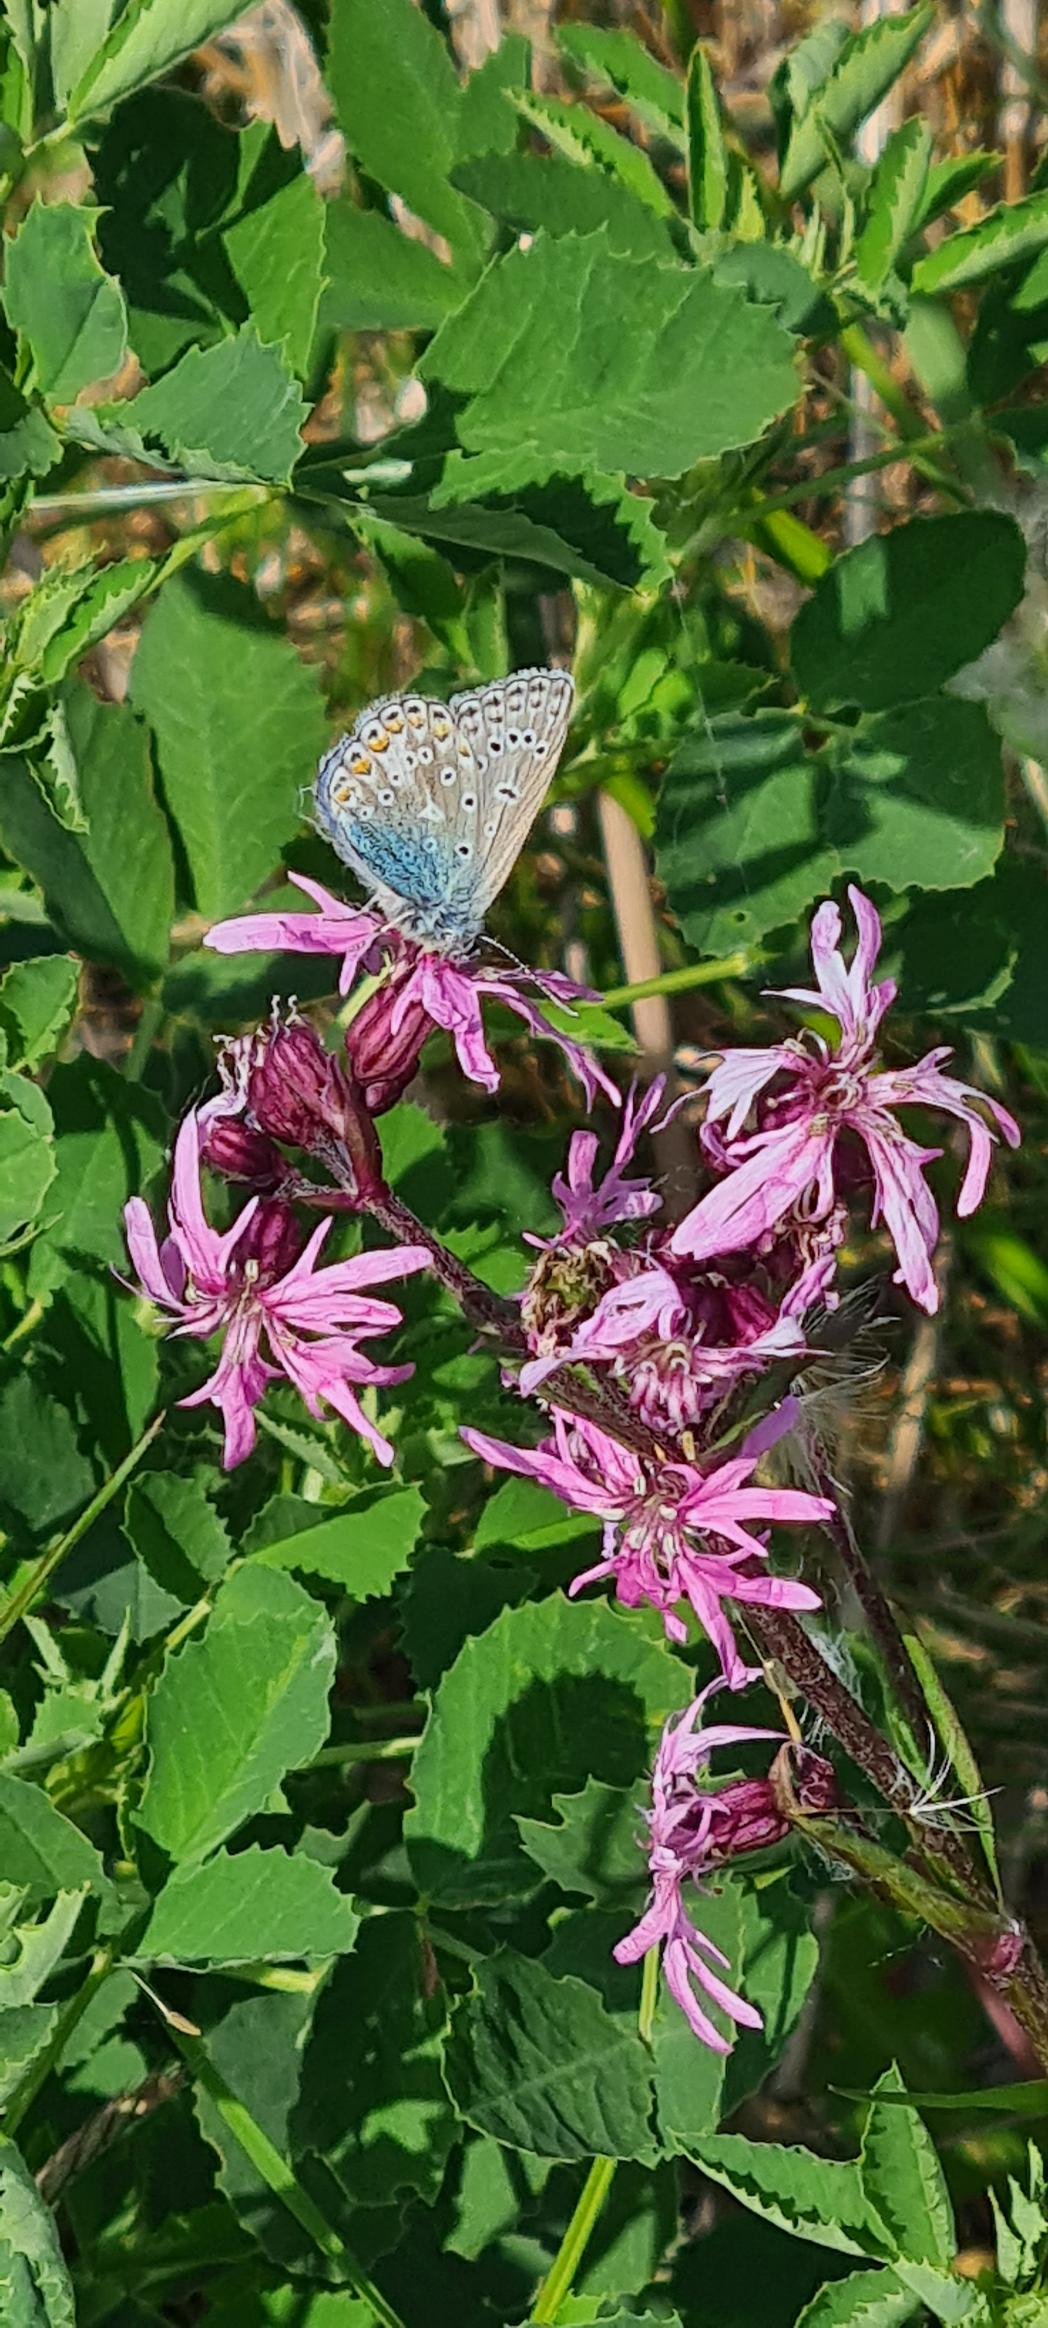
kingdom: Animalia
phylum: Arthropoda
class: Insecta
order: Lepidoptera
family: Lycaenidae
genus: Polyommatus
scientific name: Polyommatus icarus
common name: Almindelig blåfugl
